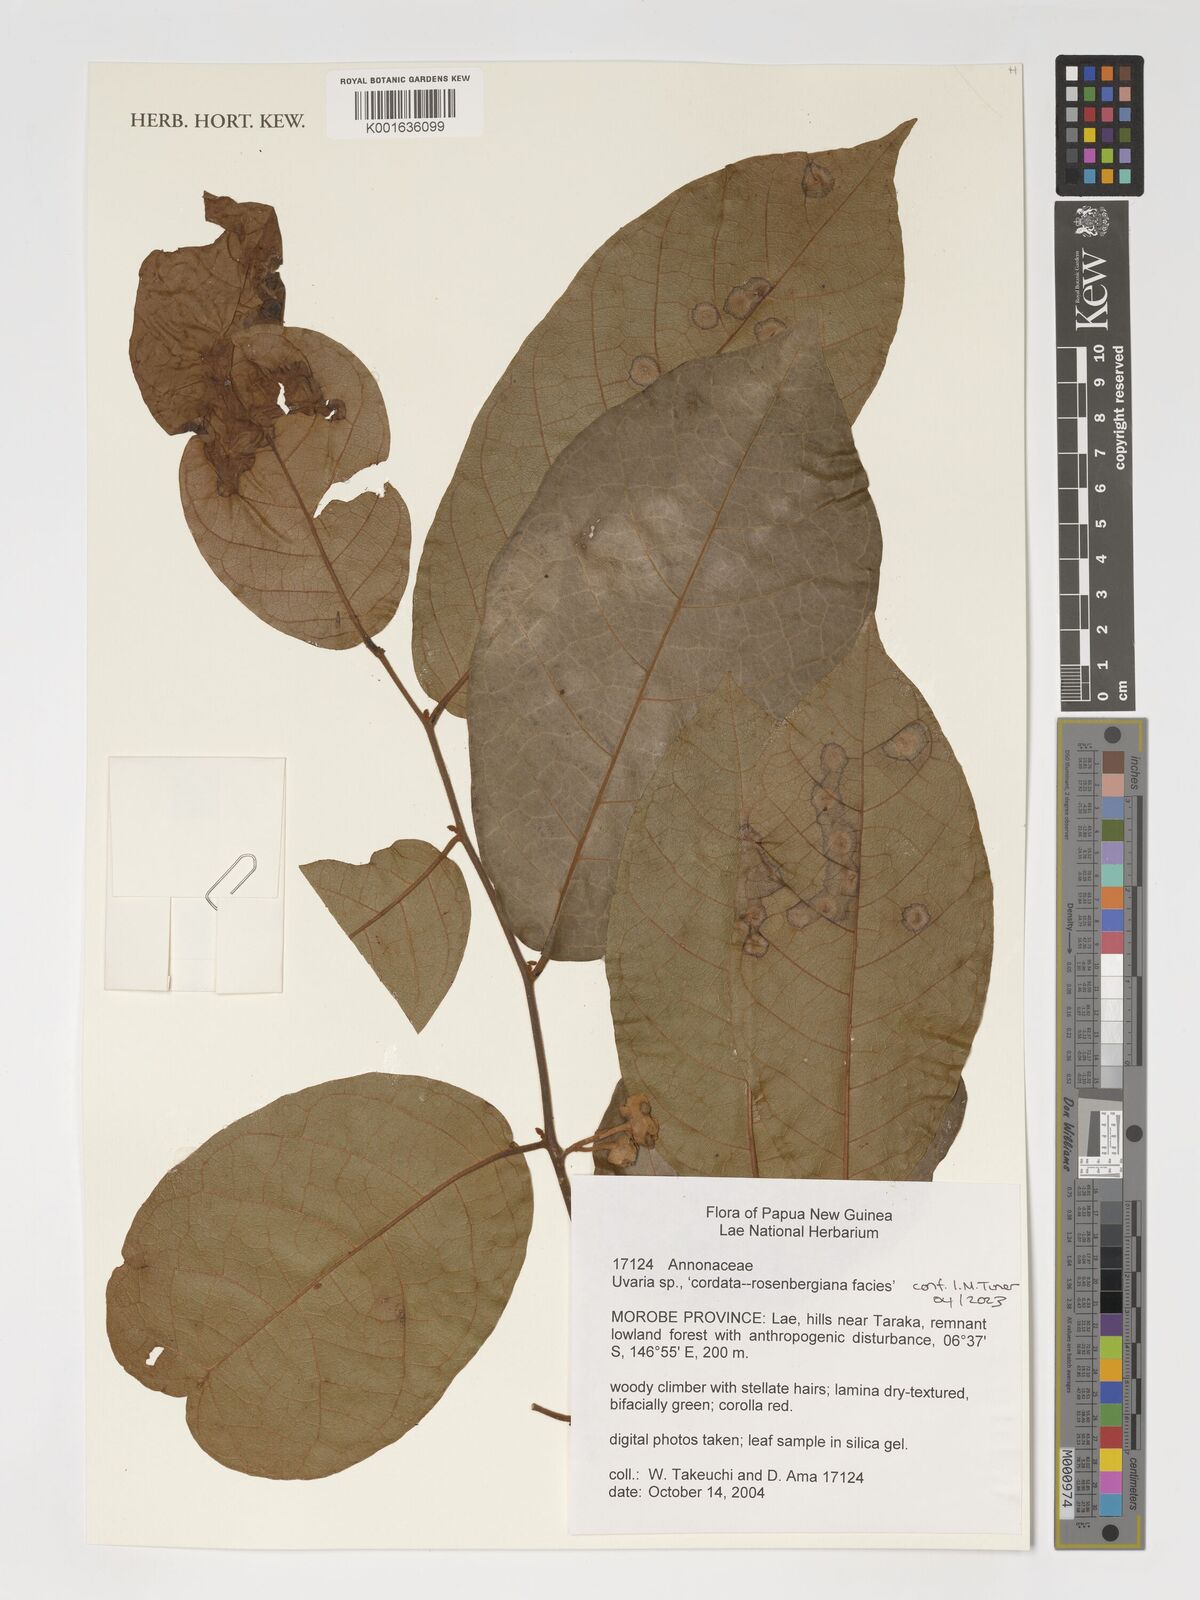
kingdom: Plantae
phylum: Tracheophyta
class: Magnoliopsida
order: Magnoliales
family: Annonaceae
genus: Uvaria
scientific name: Uvaria
